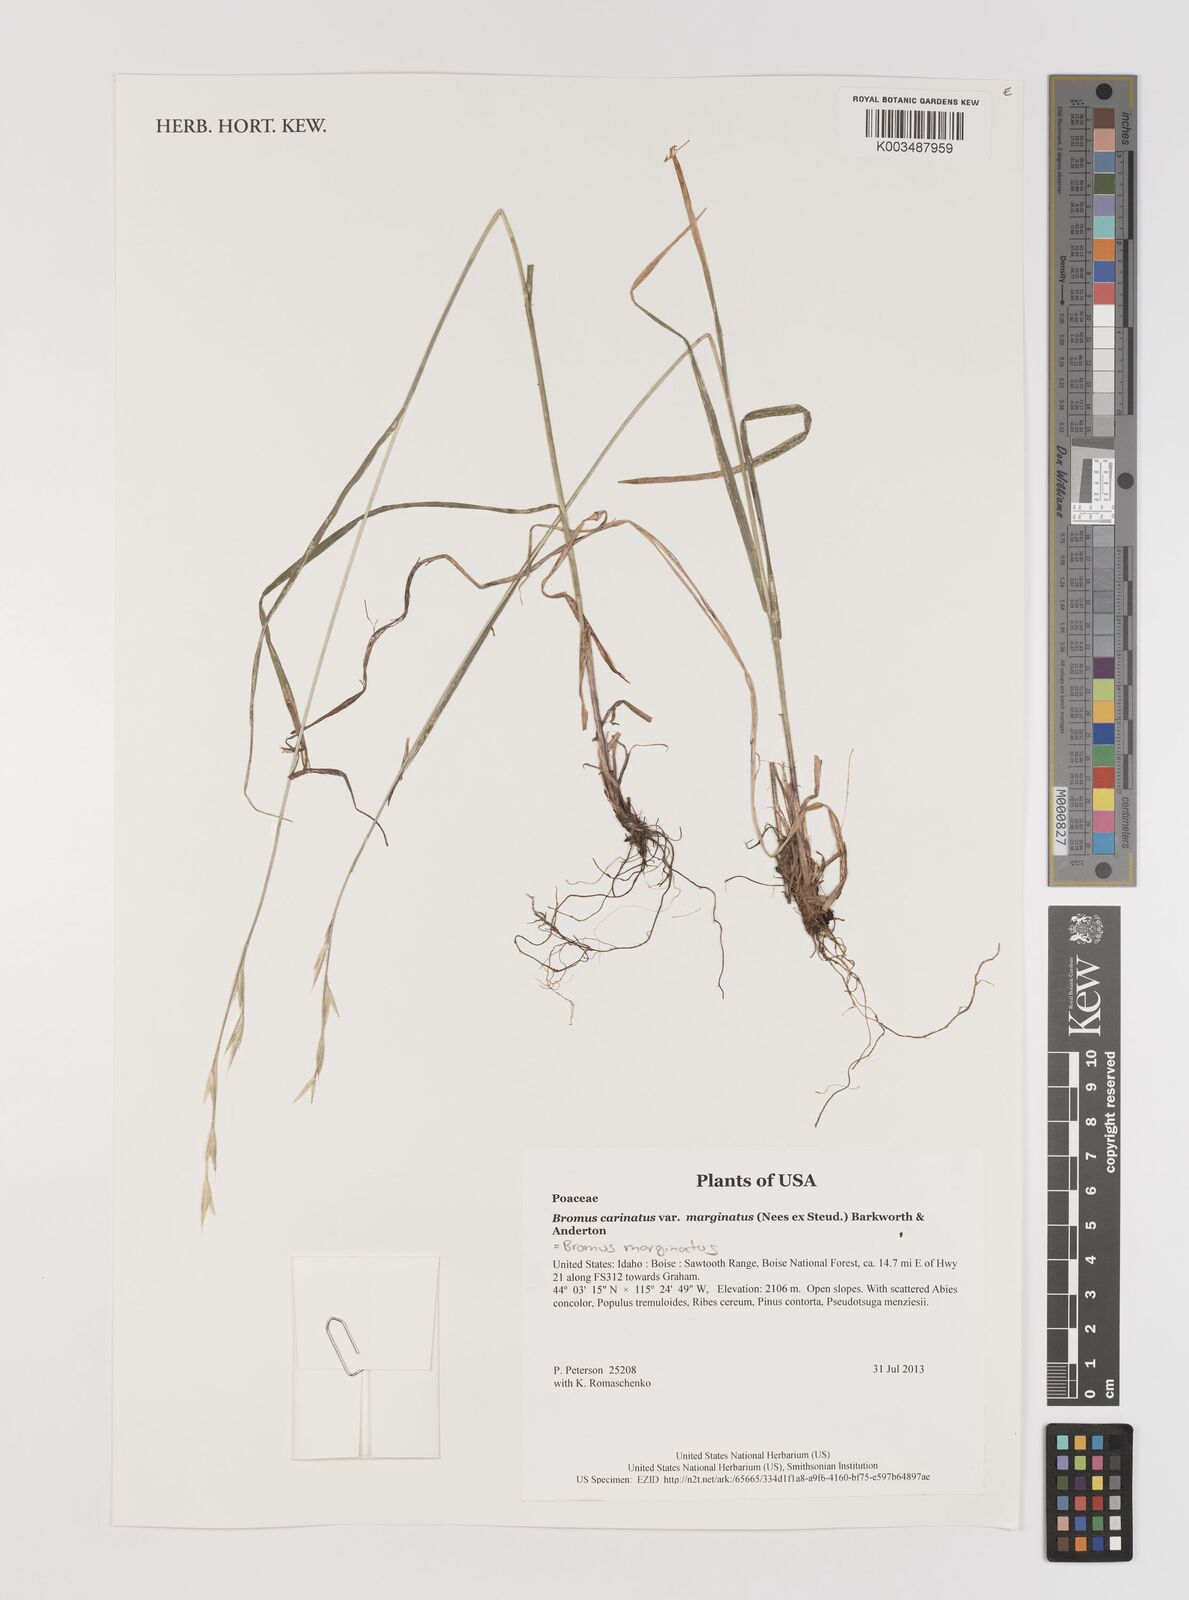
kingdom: Plantae
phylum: Tracheophyta
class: Liliopsida
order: Poales
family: Poaceae
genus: Bromus
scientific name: Bromus marginatus
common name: Western brome
